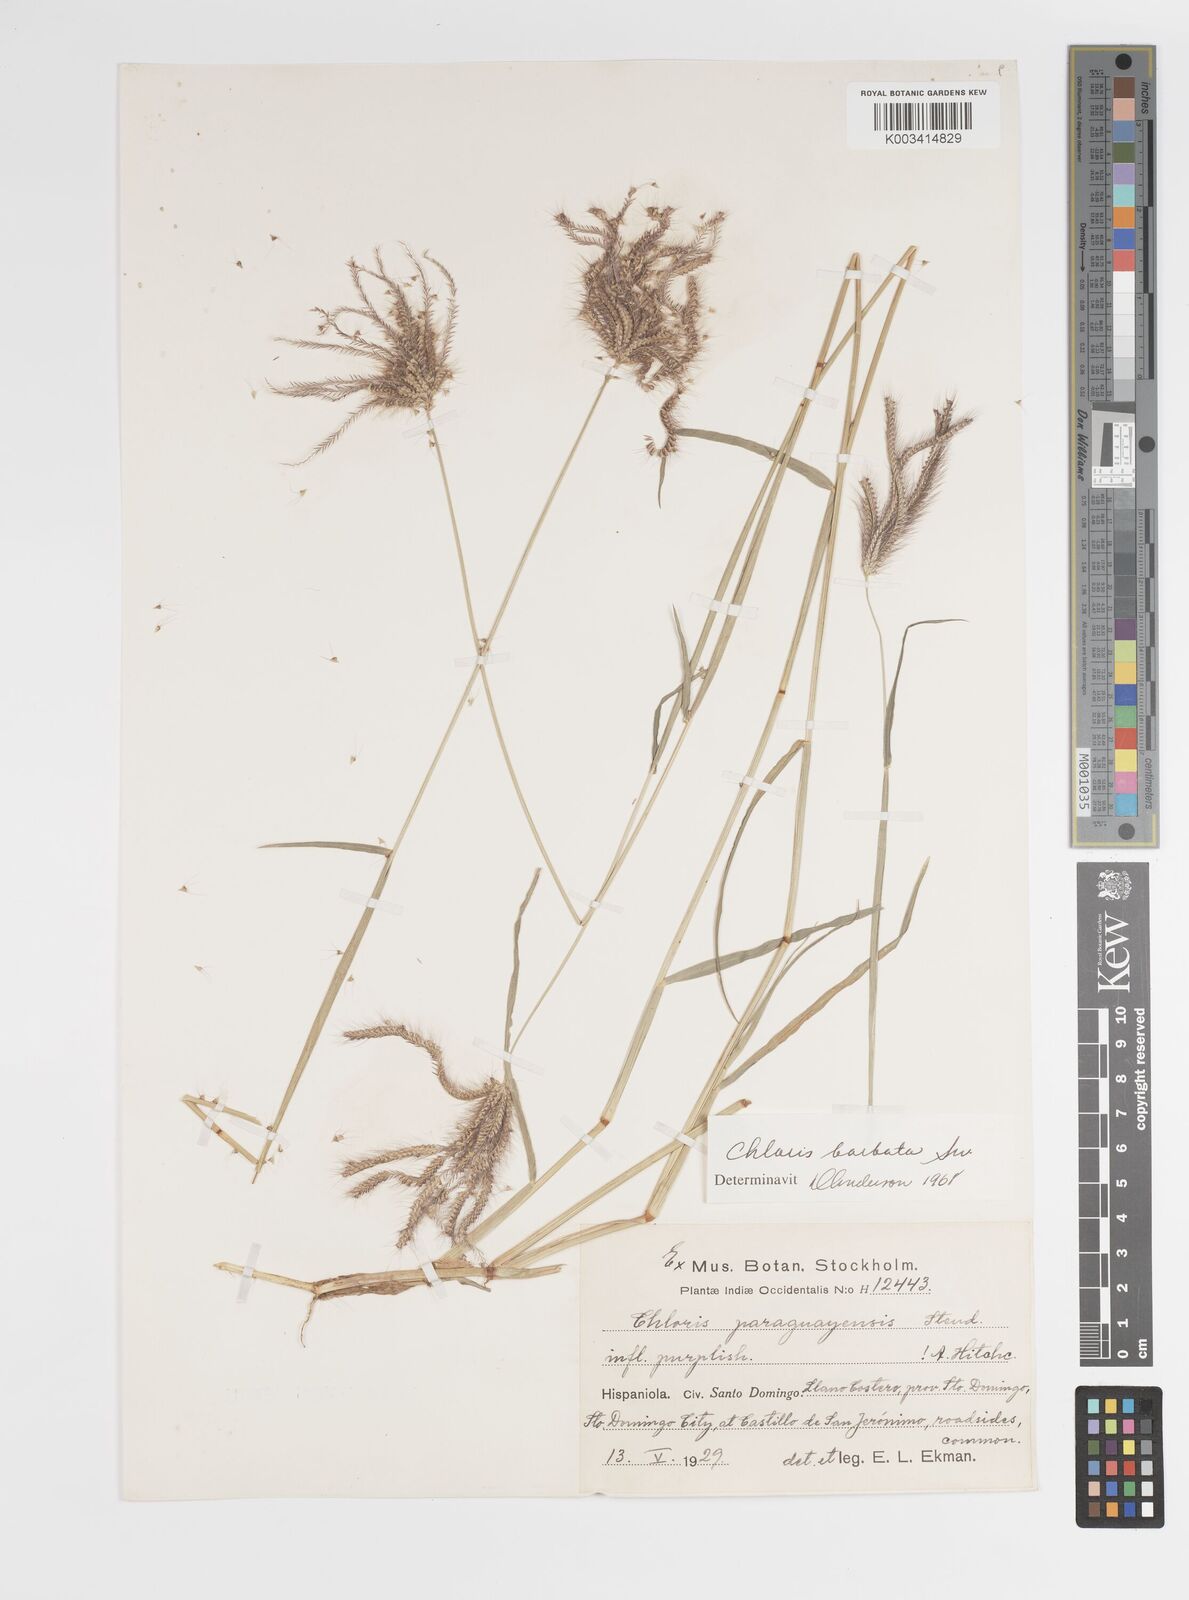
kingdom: Plantae
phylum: Tracheophyta
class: Liliopsida
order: Poales
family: Poaceae
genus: Chloris
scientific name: Chloris barbata
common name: Swollen fingergrass
